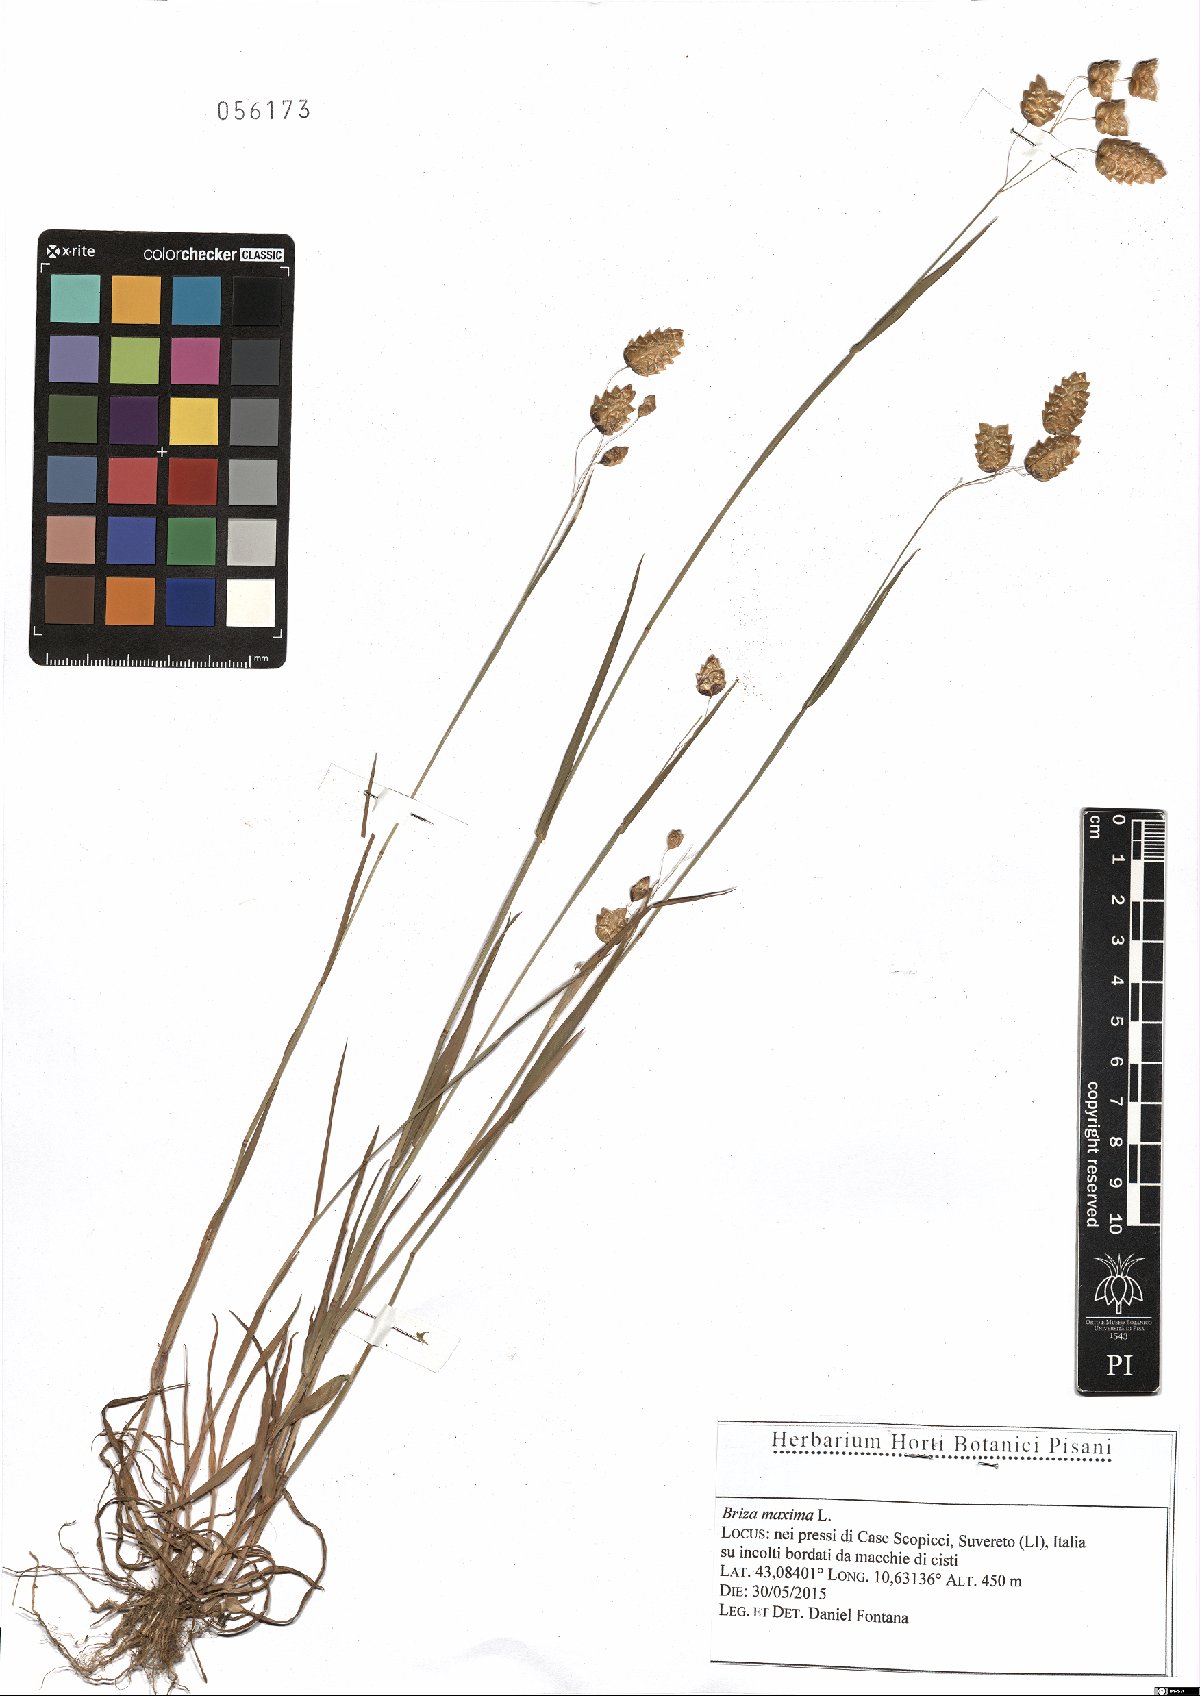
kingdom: Plantae
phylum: Tracheophyta
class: Liliopsida
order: Poales
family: Poaceae
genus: Briza
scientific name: Briza maxima
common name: Big quakinggrass
